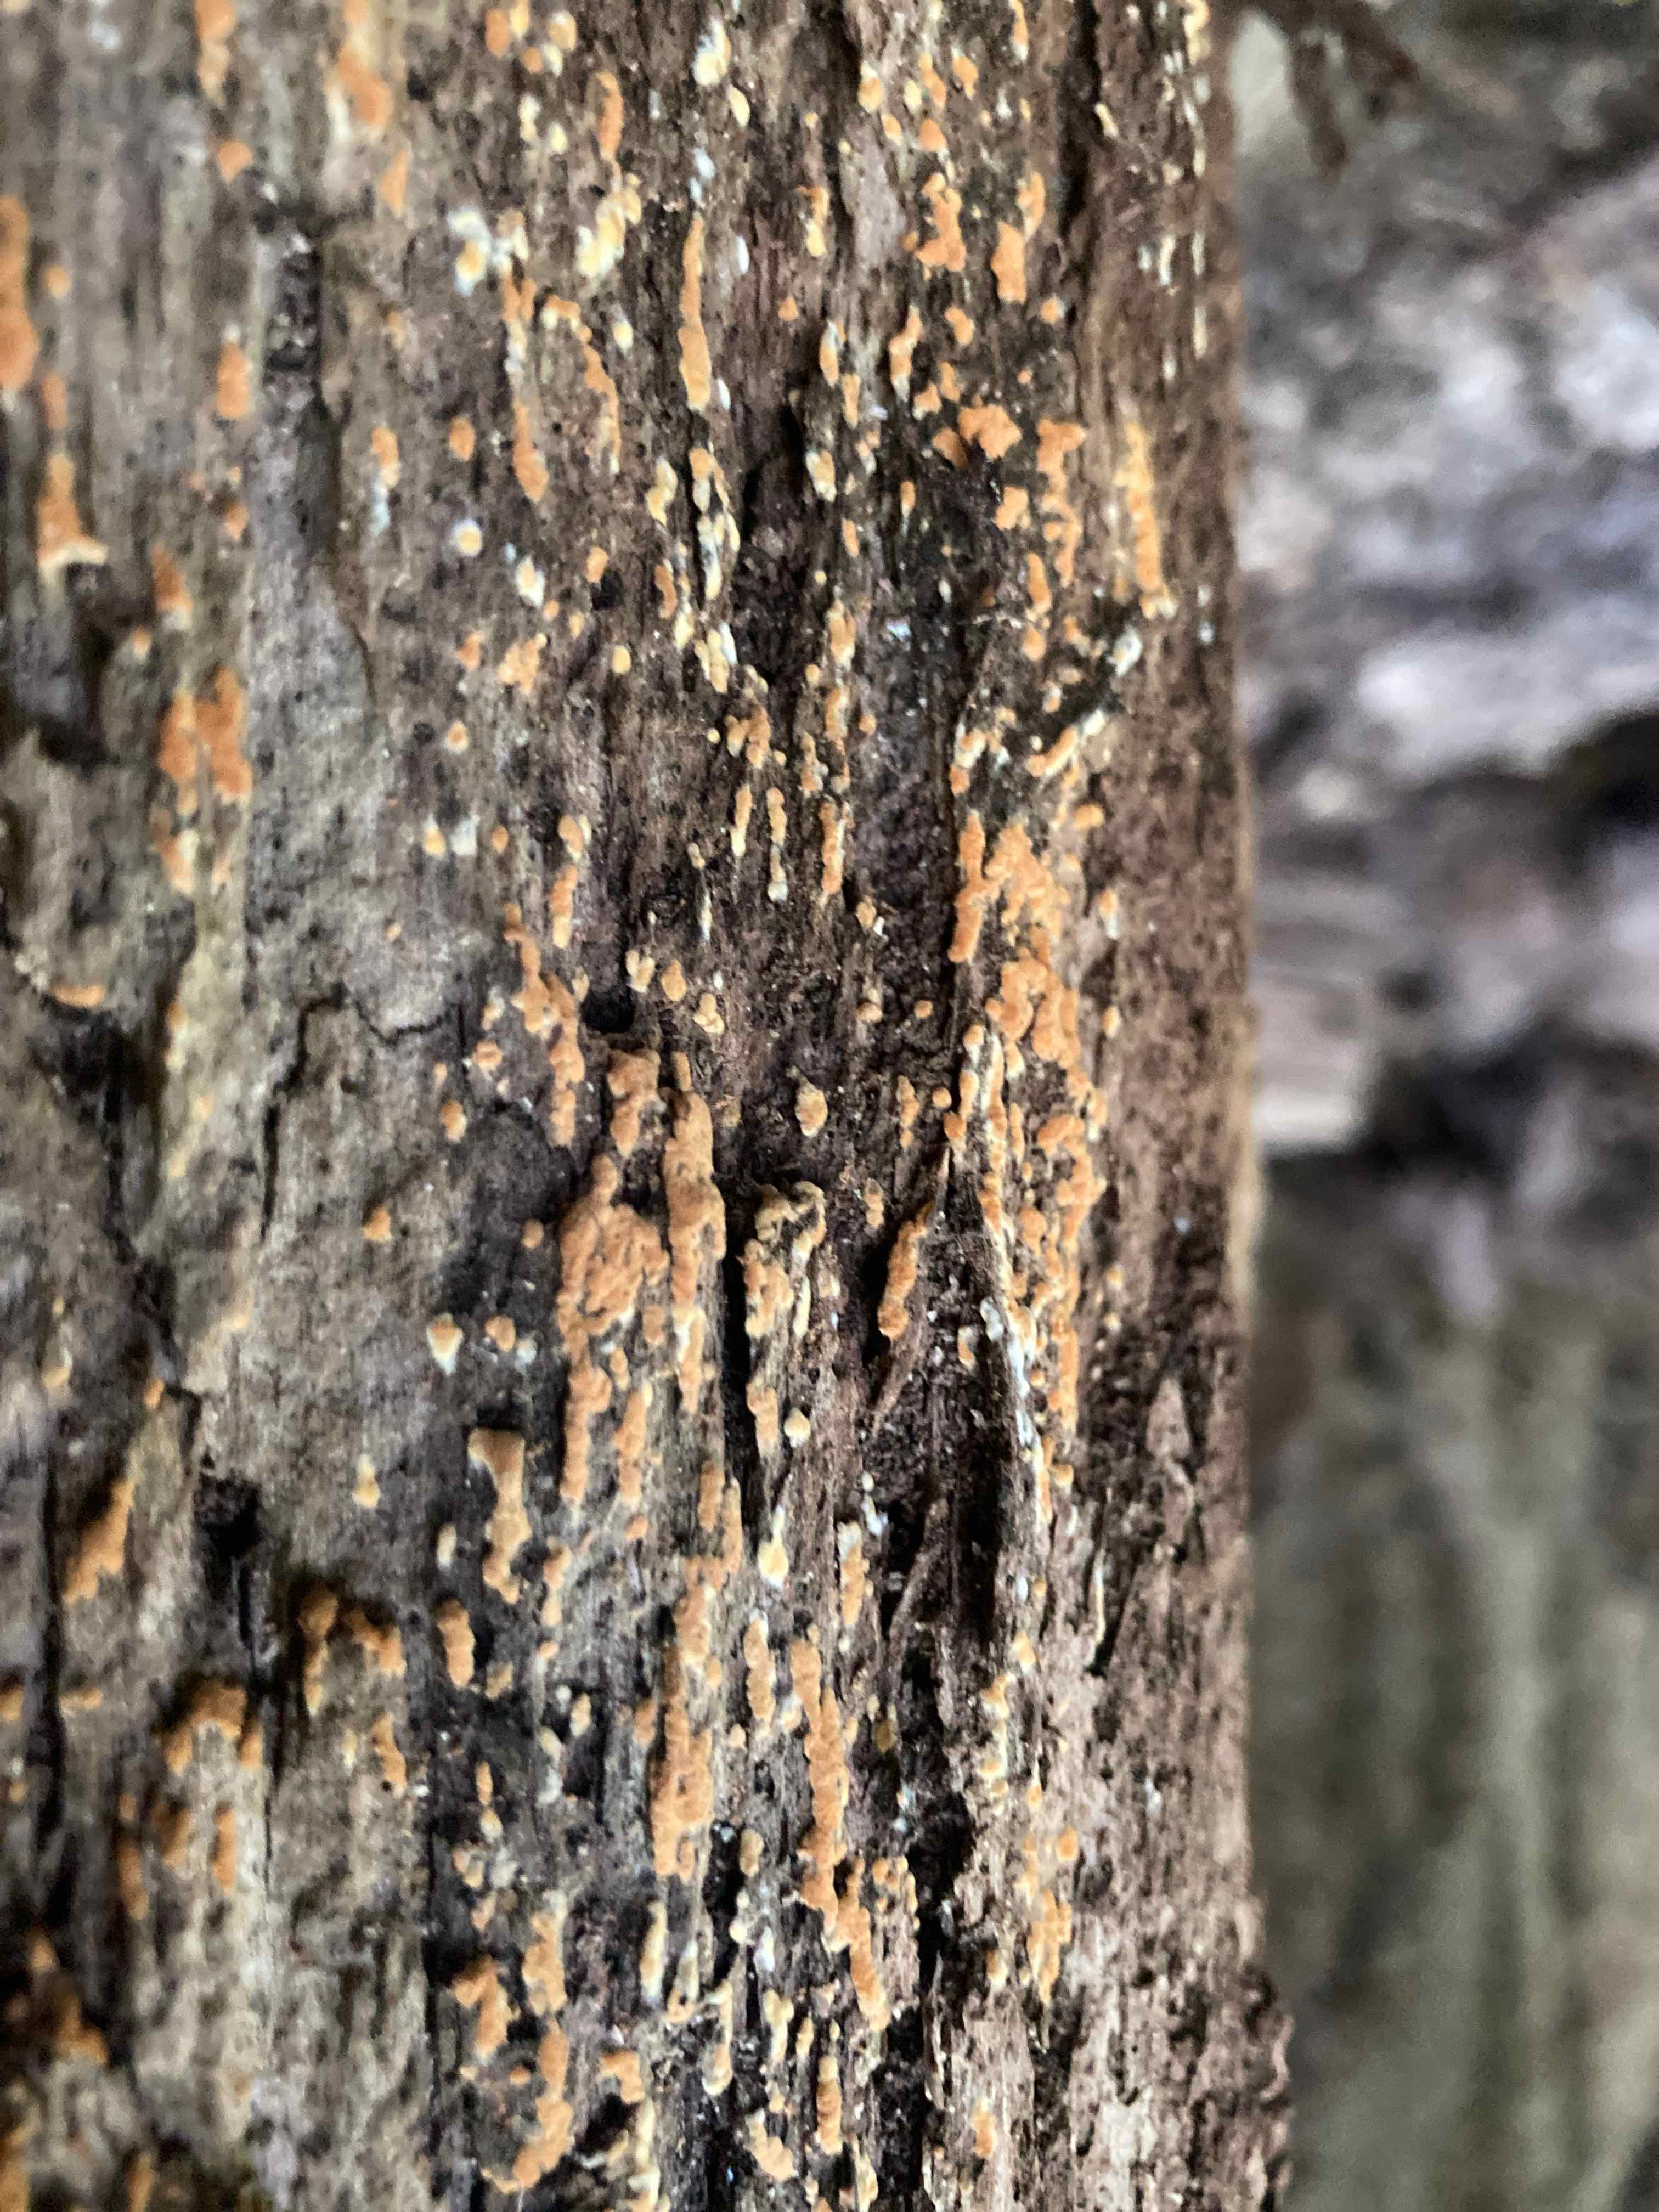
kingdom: Fungi
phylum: Basidiomycota
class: Agaricomycetes
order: Cantharellales
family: Botryobasidiaceae
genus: Botryobasidium
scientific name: Botryobasidium aureum
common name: gylden spindhinde
